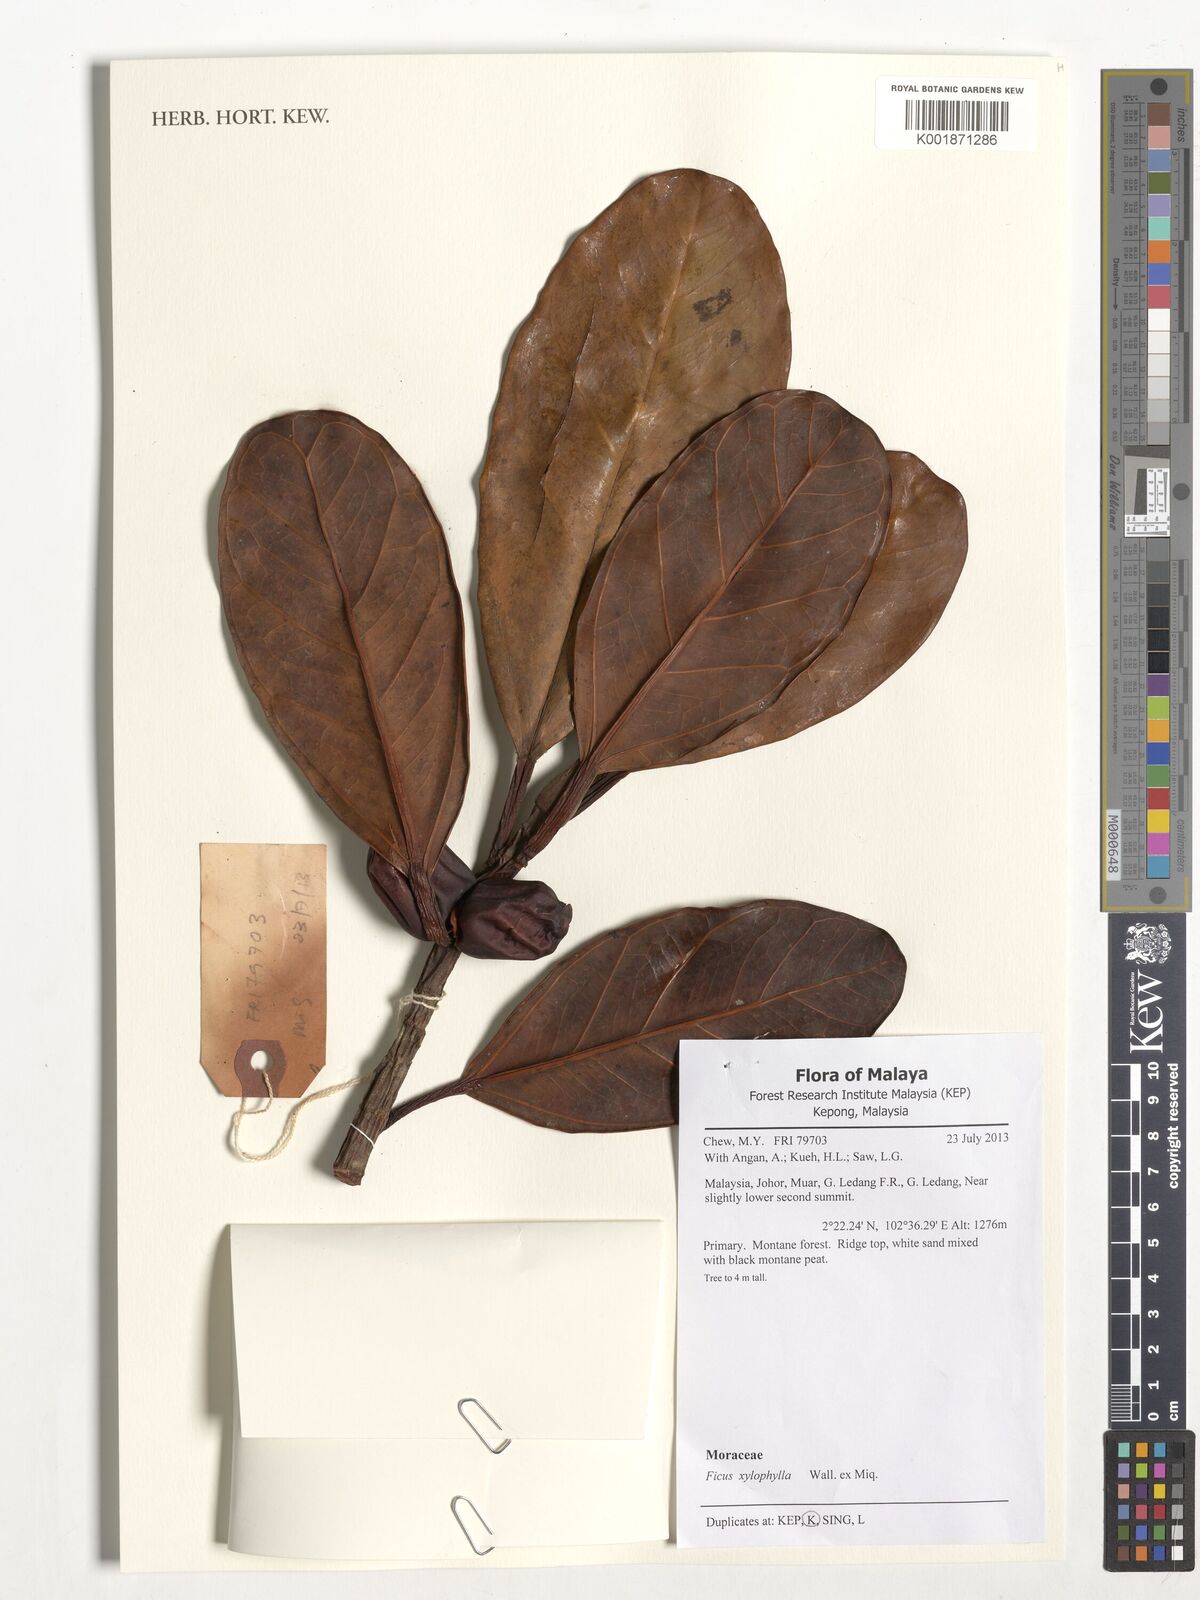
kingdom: Plantae
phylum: Tracheophyta
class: Magnoliopsida
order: Rosales
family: Moraceae
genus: Ficus
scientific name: Ficus xylophylla
